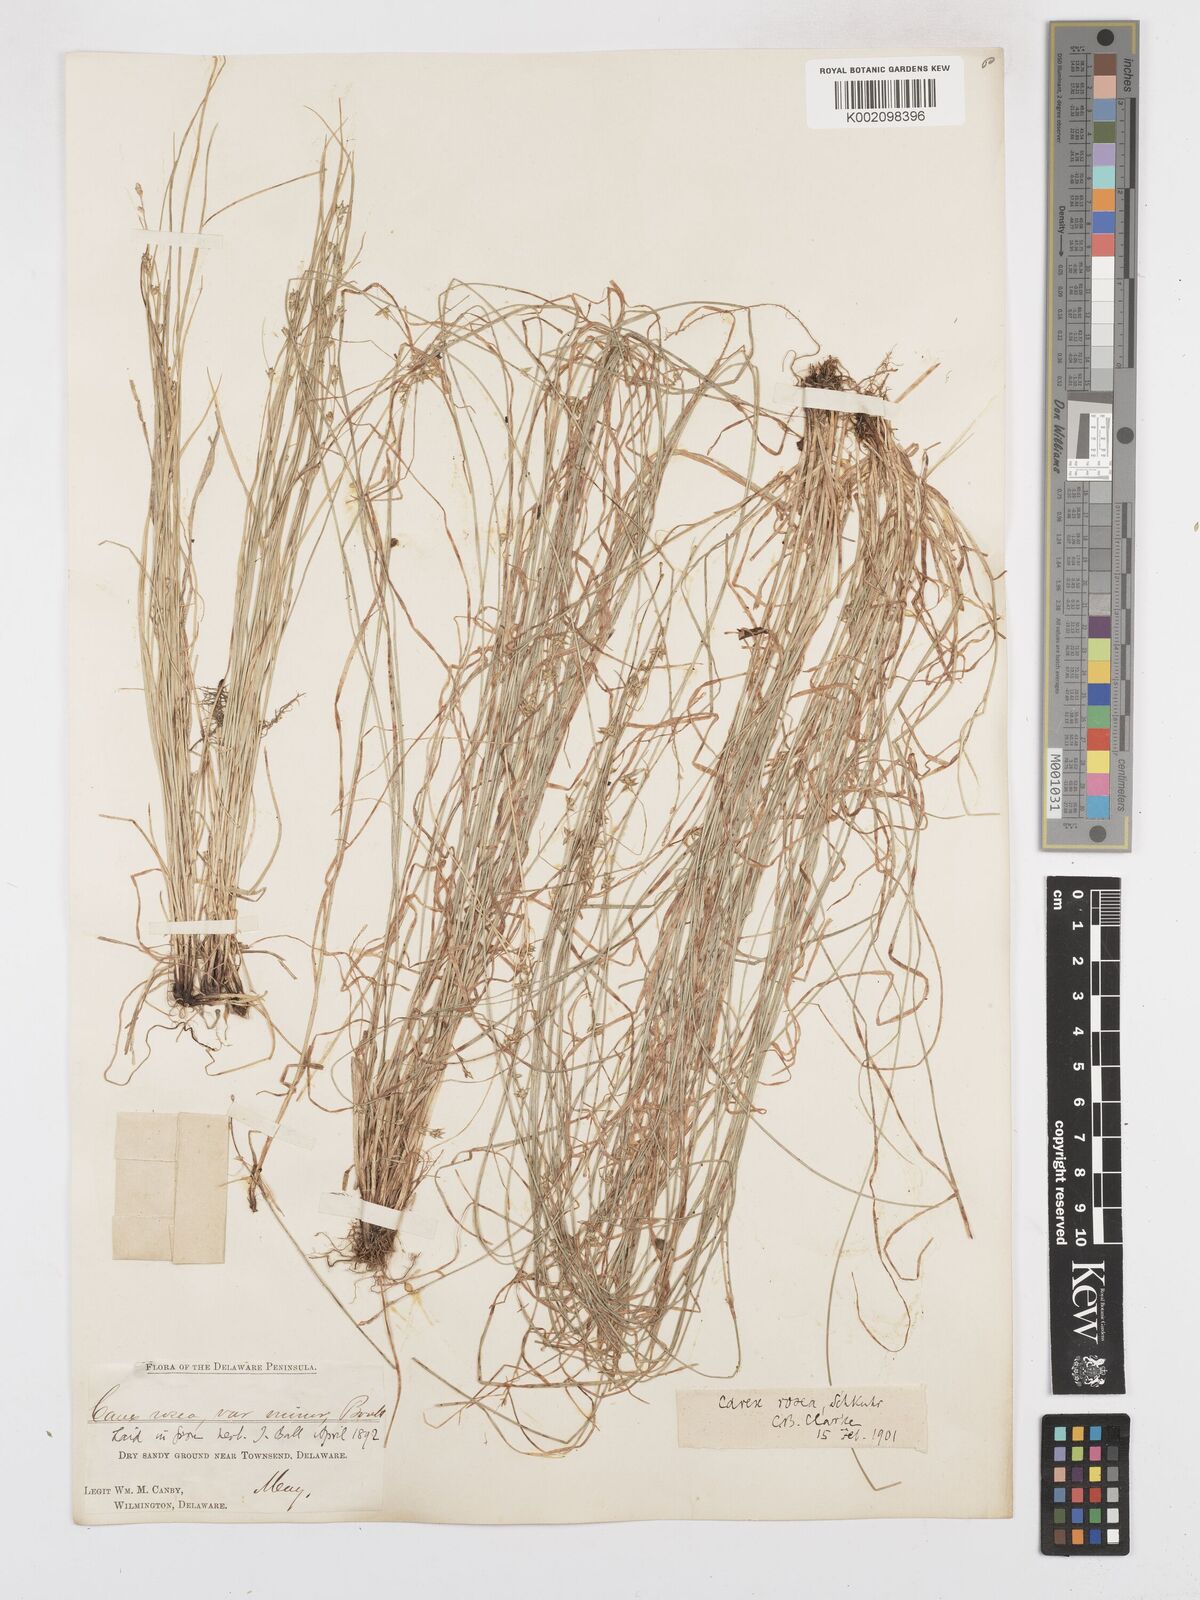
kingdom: Plantae
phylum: Tracheophyta
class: Liliopsida
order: Poales
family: Cyperaceae
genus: Carex
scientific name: Carex rosea
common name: Curly-styled wood sedge
